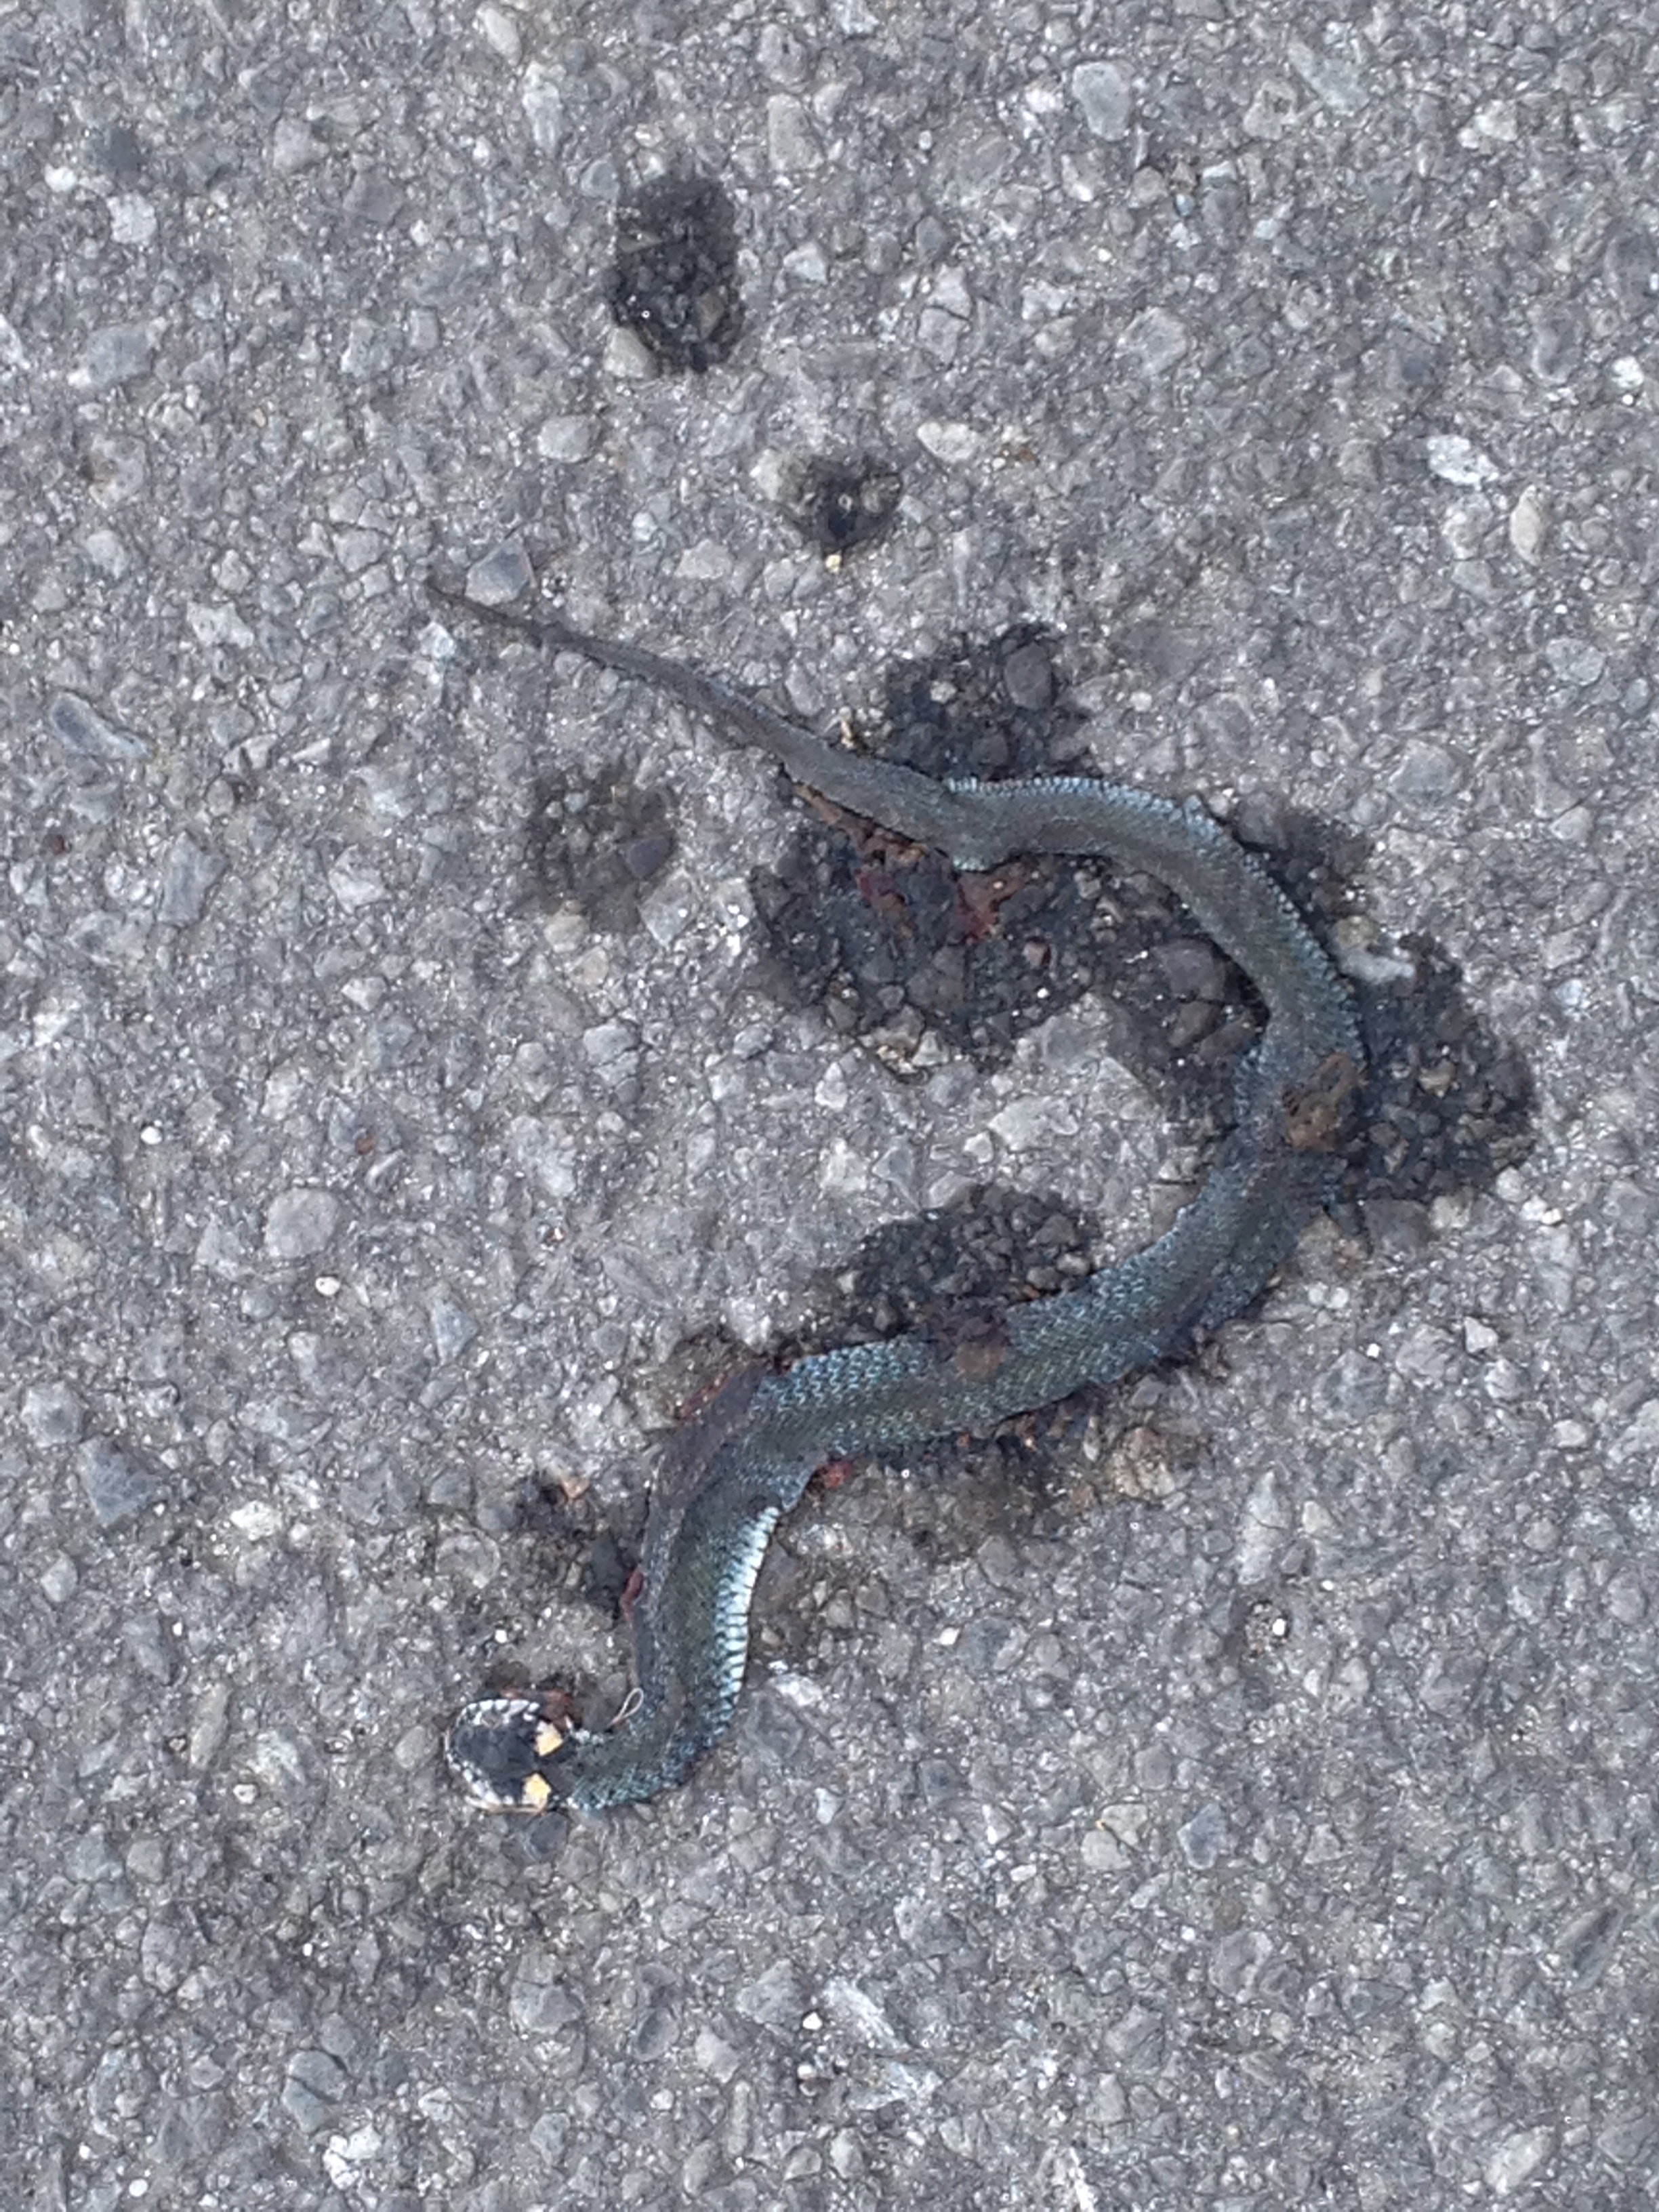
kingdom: Animalia
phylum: Chordata
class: Squamata
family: Colubridae
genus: Natrix
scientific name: Natrix natrix
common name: Grass snake
